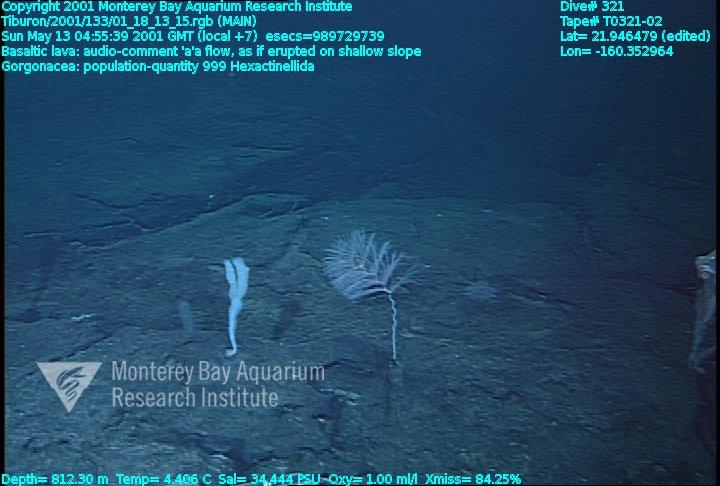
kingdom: Animalia
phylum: Porifera
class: Hexactinellida
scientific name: Hexactinellida
